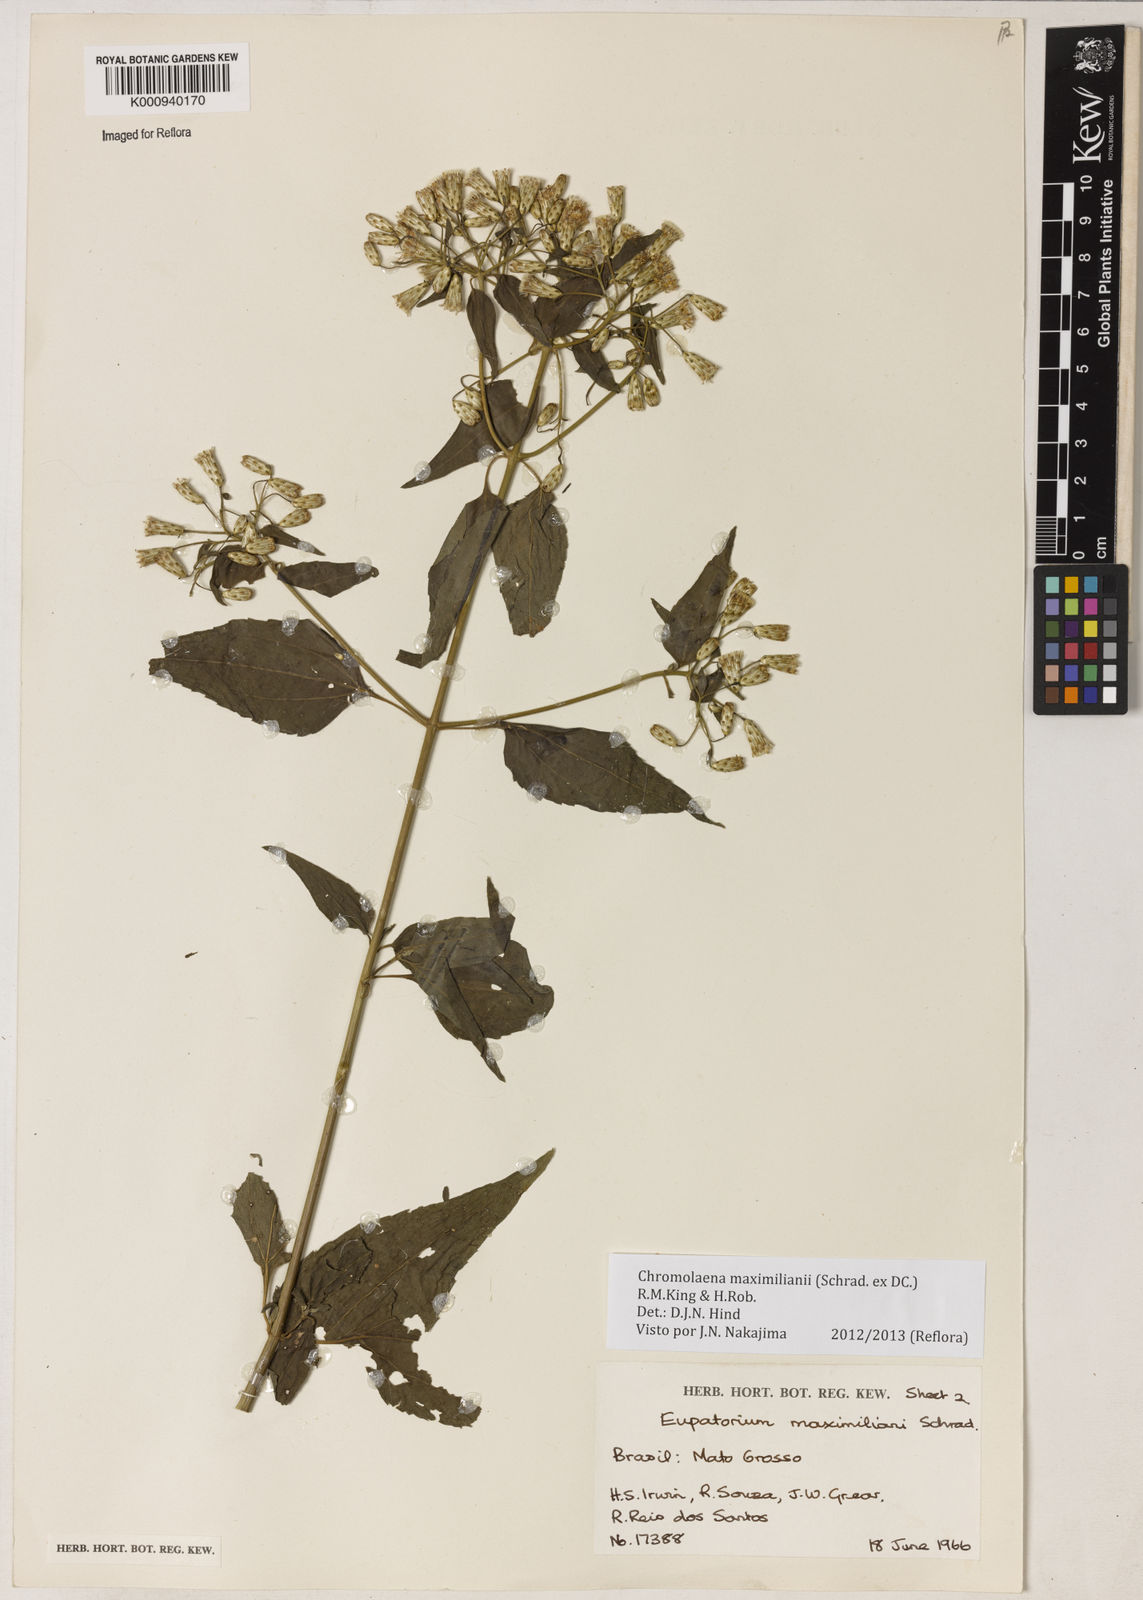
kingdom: Plantae
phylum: Tracheophyta
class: Magnoliopsida
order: Asterales
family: Asteraceae
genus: Chromolaena
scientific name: Chromolaena maximiliani
